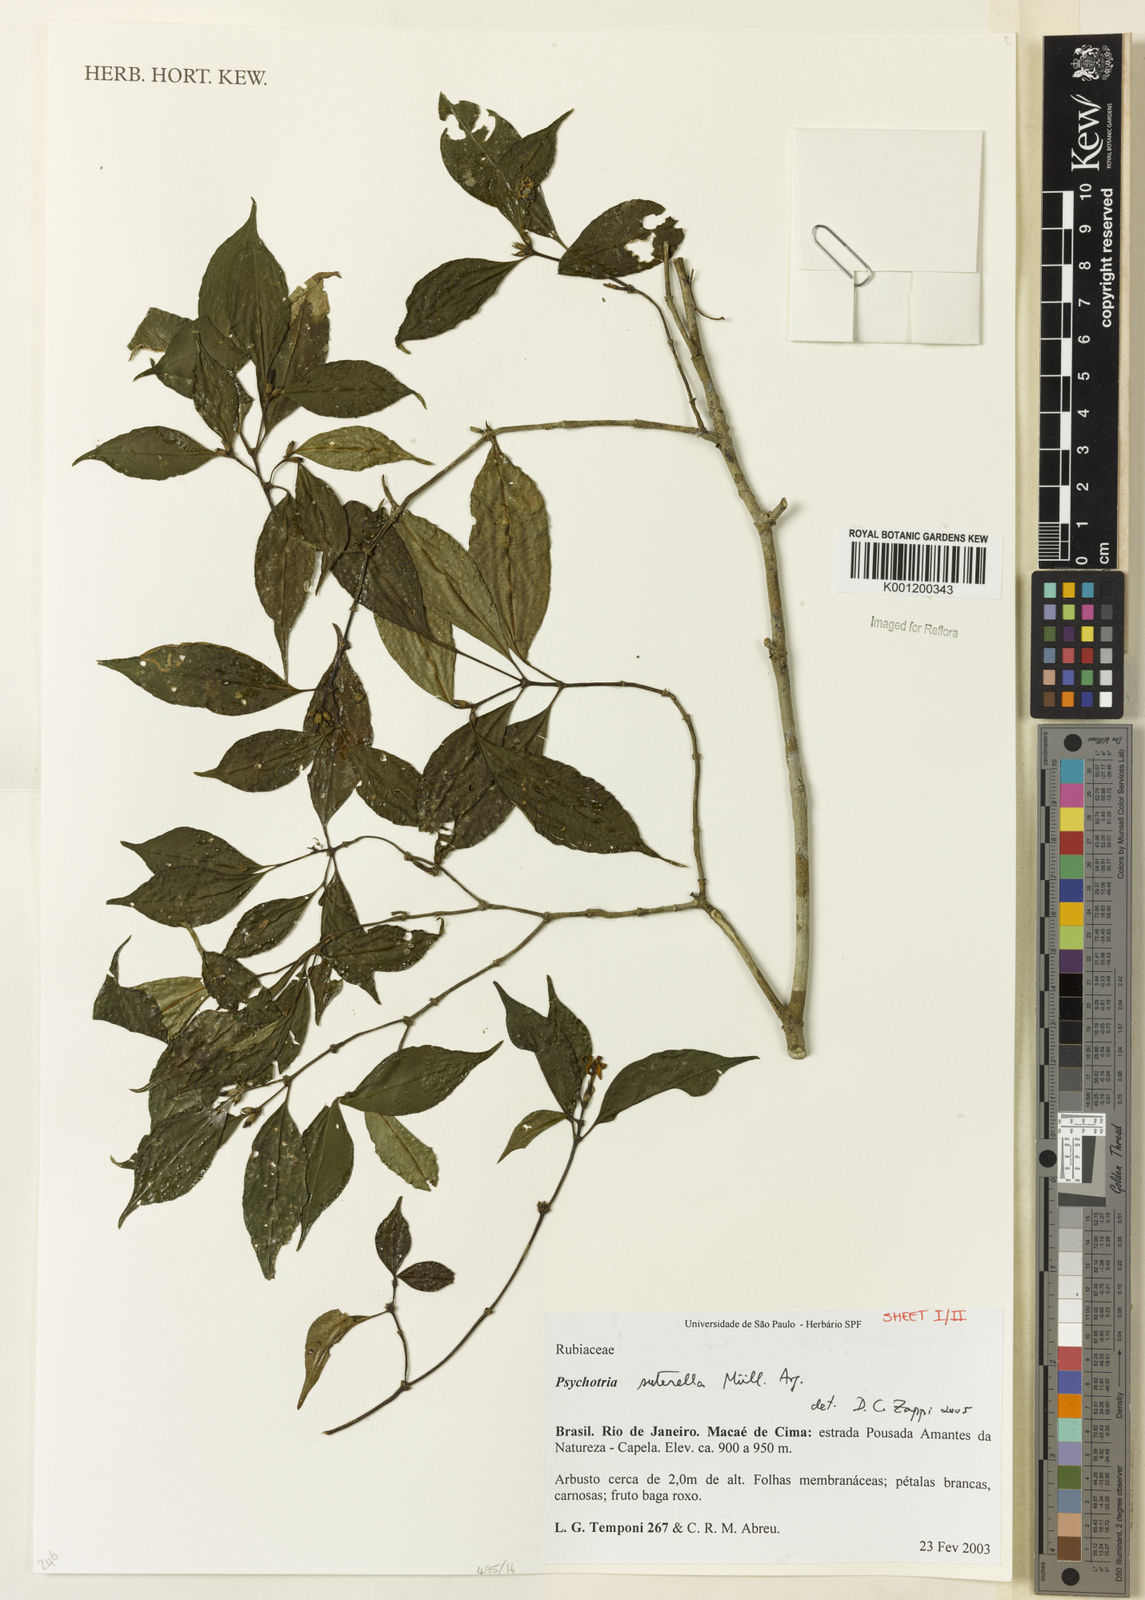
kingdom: Plantae
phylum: Tracheophyta
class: Magnoliopsida
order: Gentianales
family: Rubiaceae
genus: Psychotria
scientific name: Psychotria
